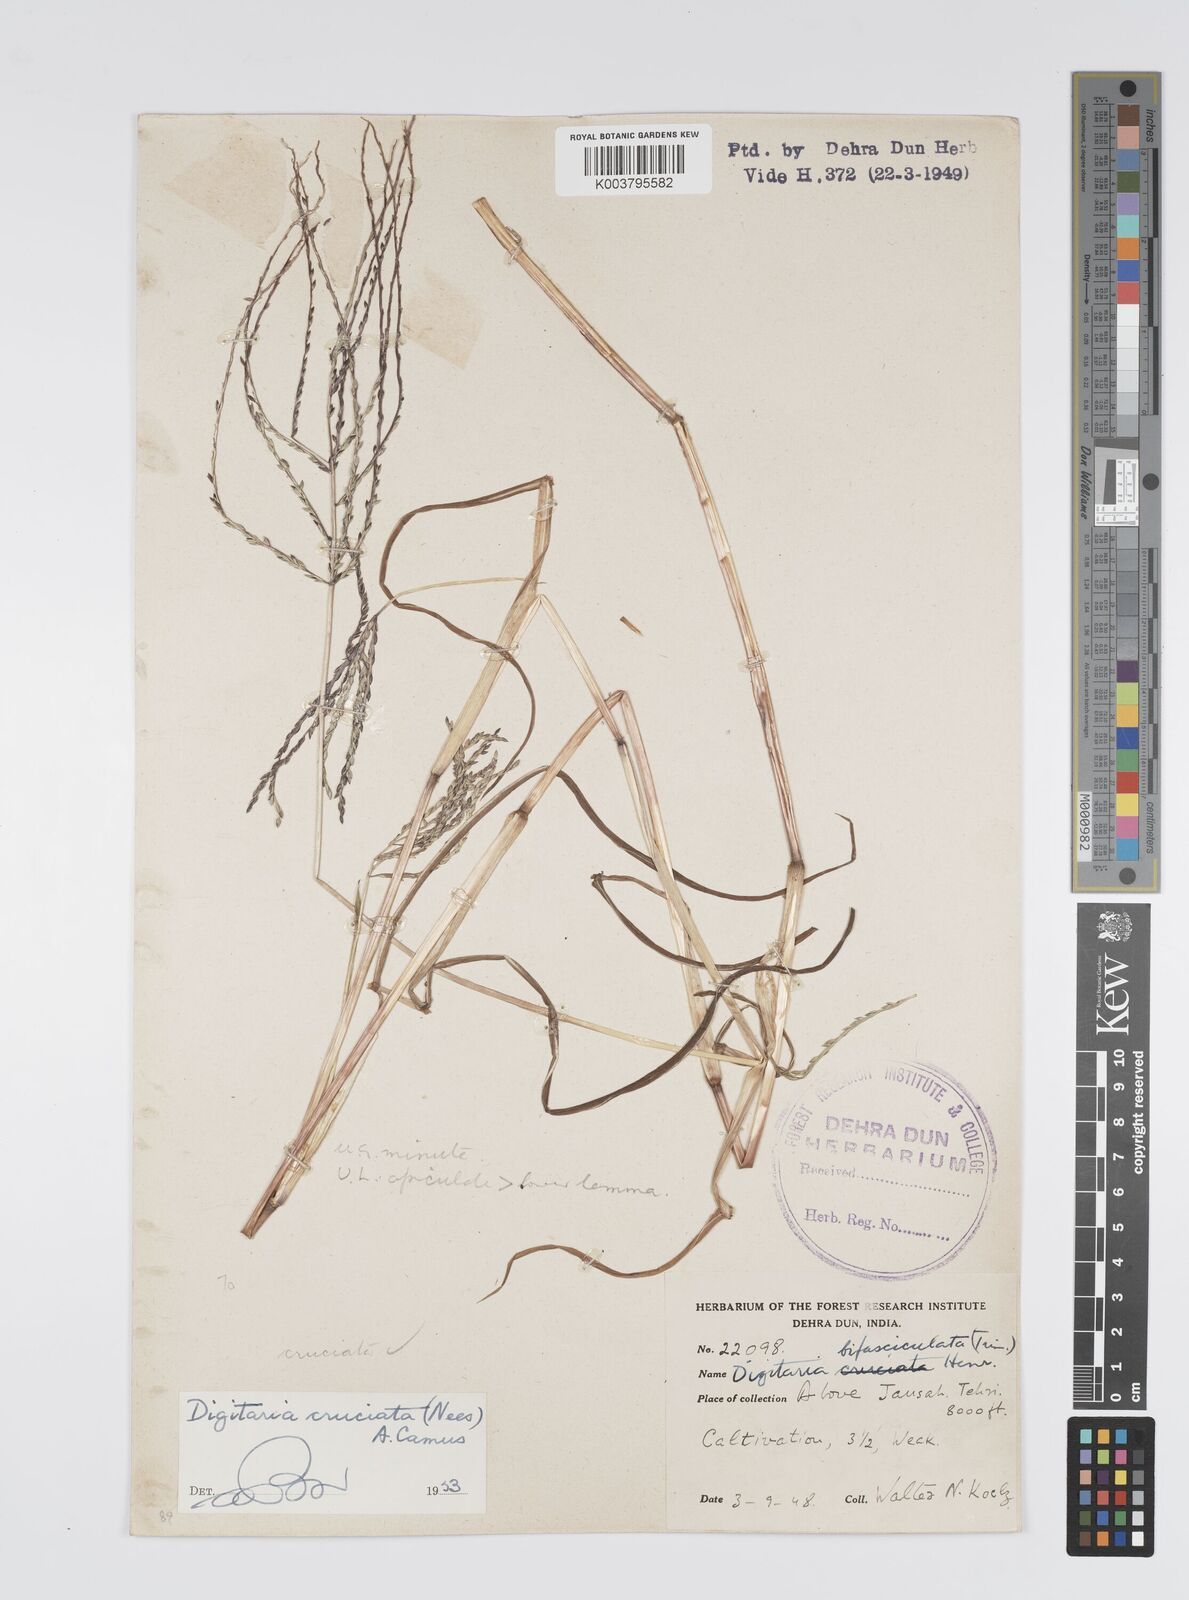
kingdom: Plantae
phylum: Tracheophyta
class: Liliopsida
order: Poales
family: Poaceae
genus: Digitaria
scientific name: Digitaria sanguinalis
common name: Hairy crabgrass
